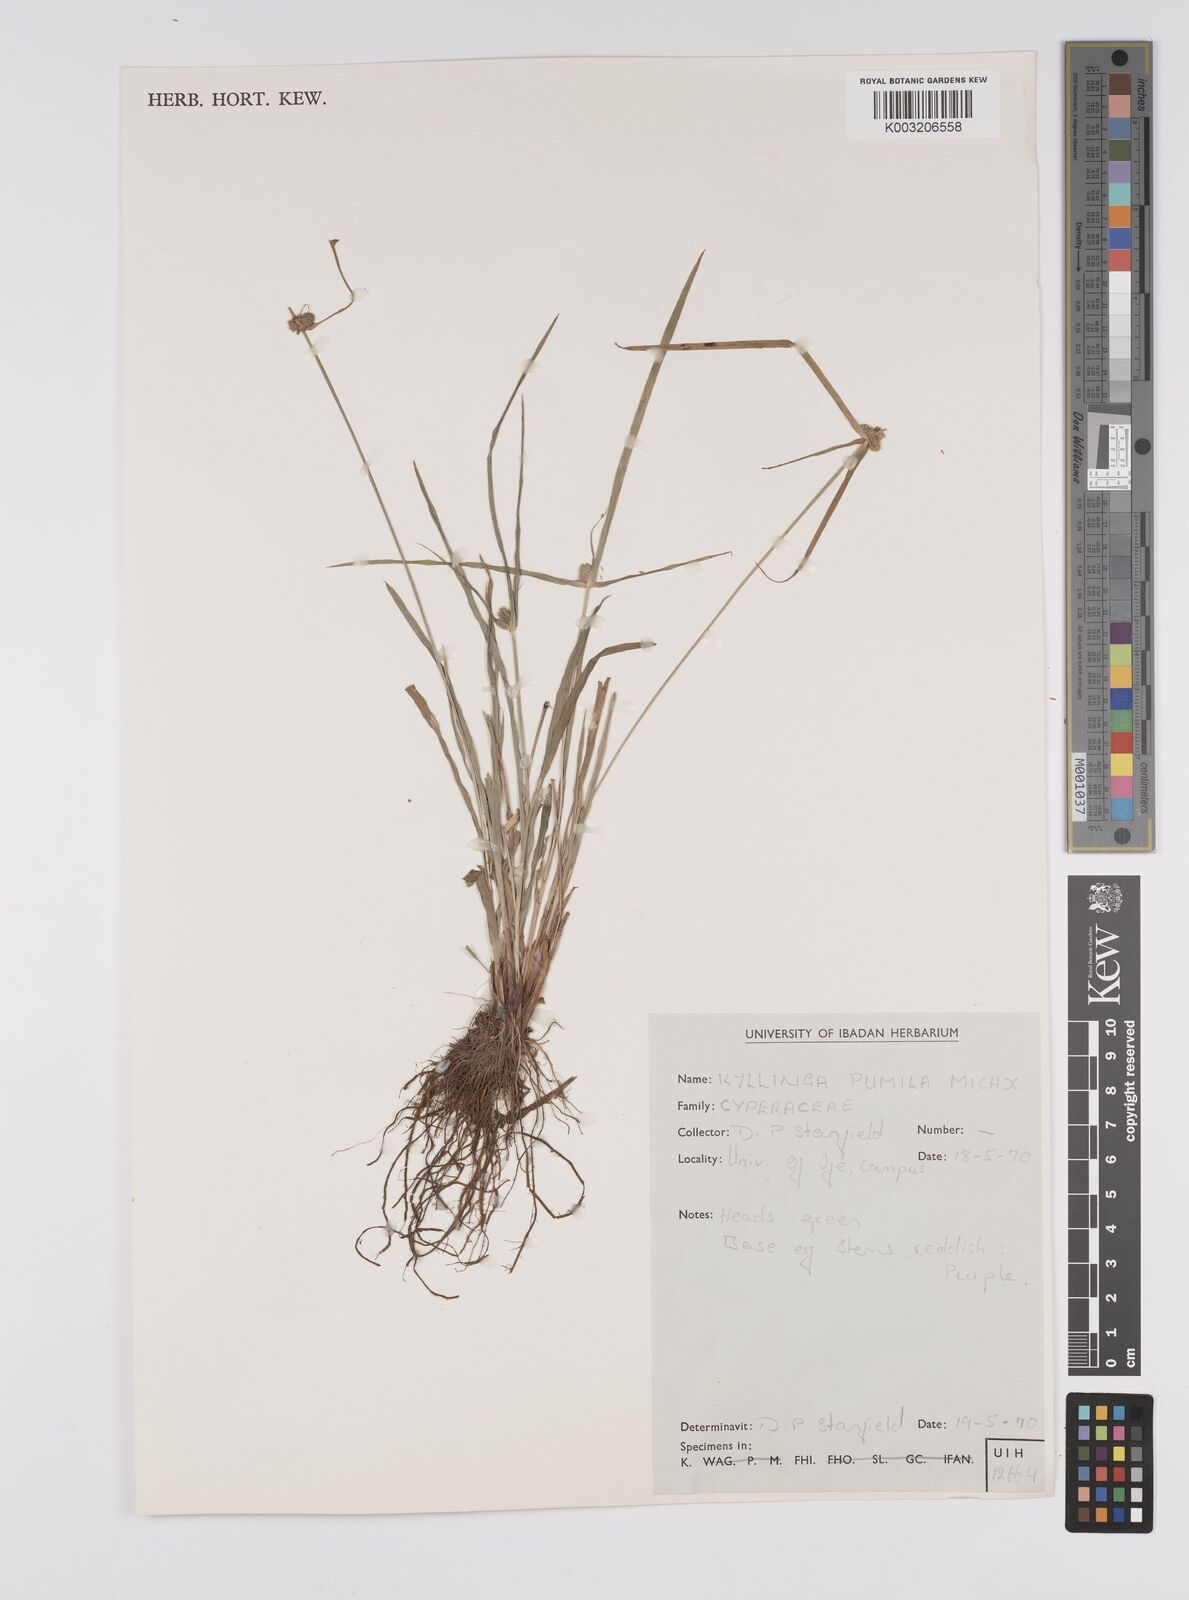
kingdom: Plantae
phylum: Tracheophyta
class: Liliopsida
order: Poales
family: Cyperaceae
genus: Cyperus
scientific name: Cyperus
